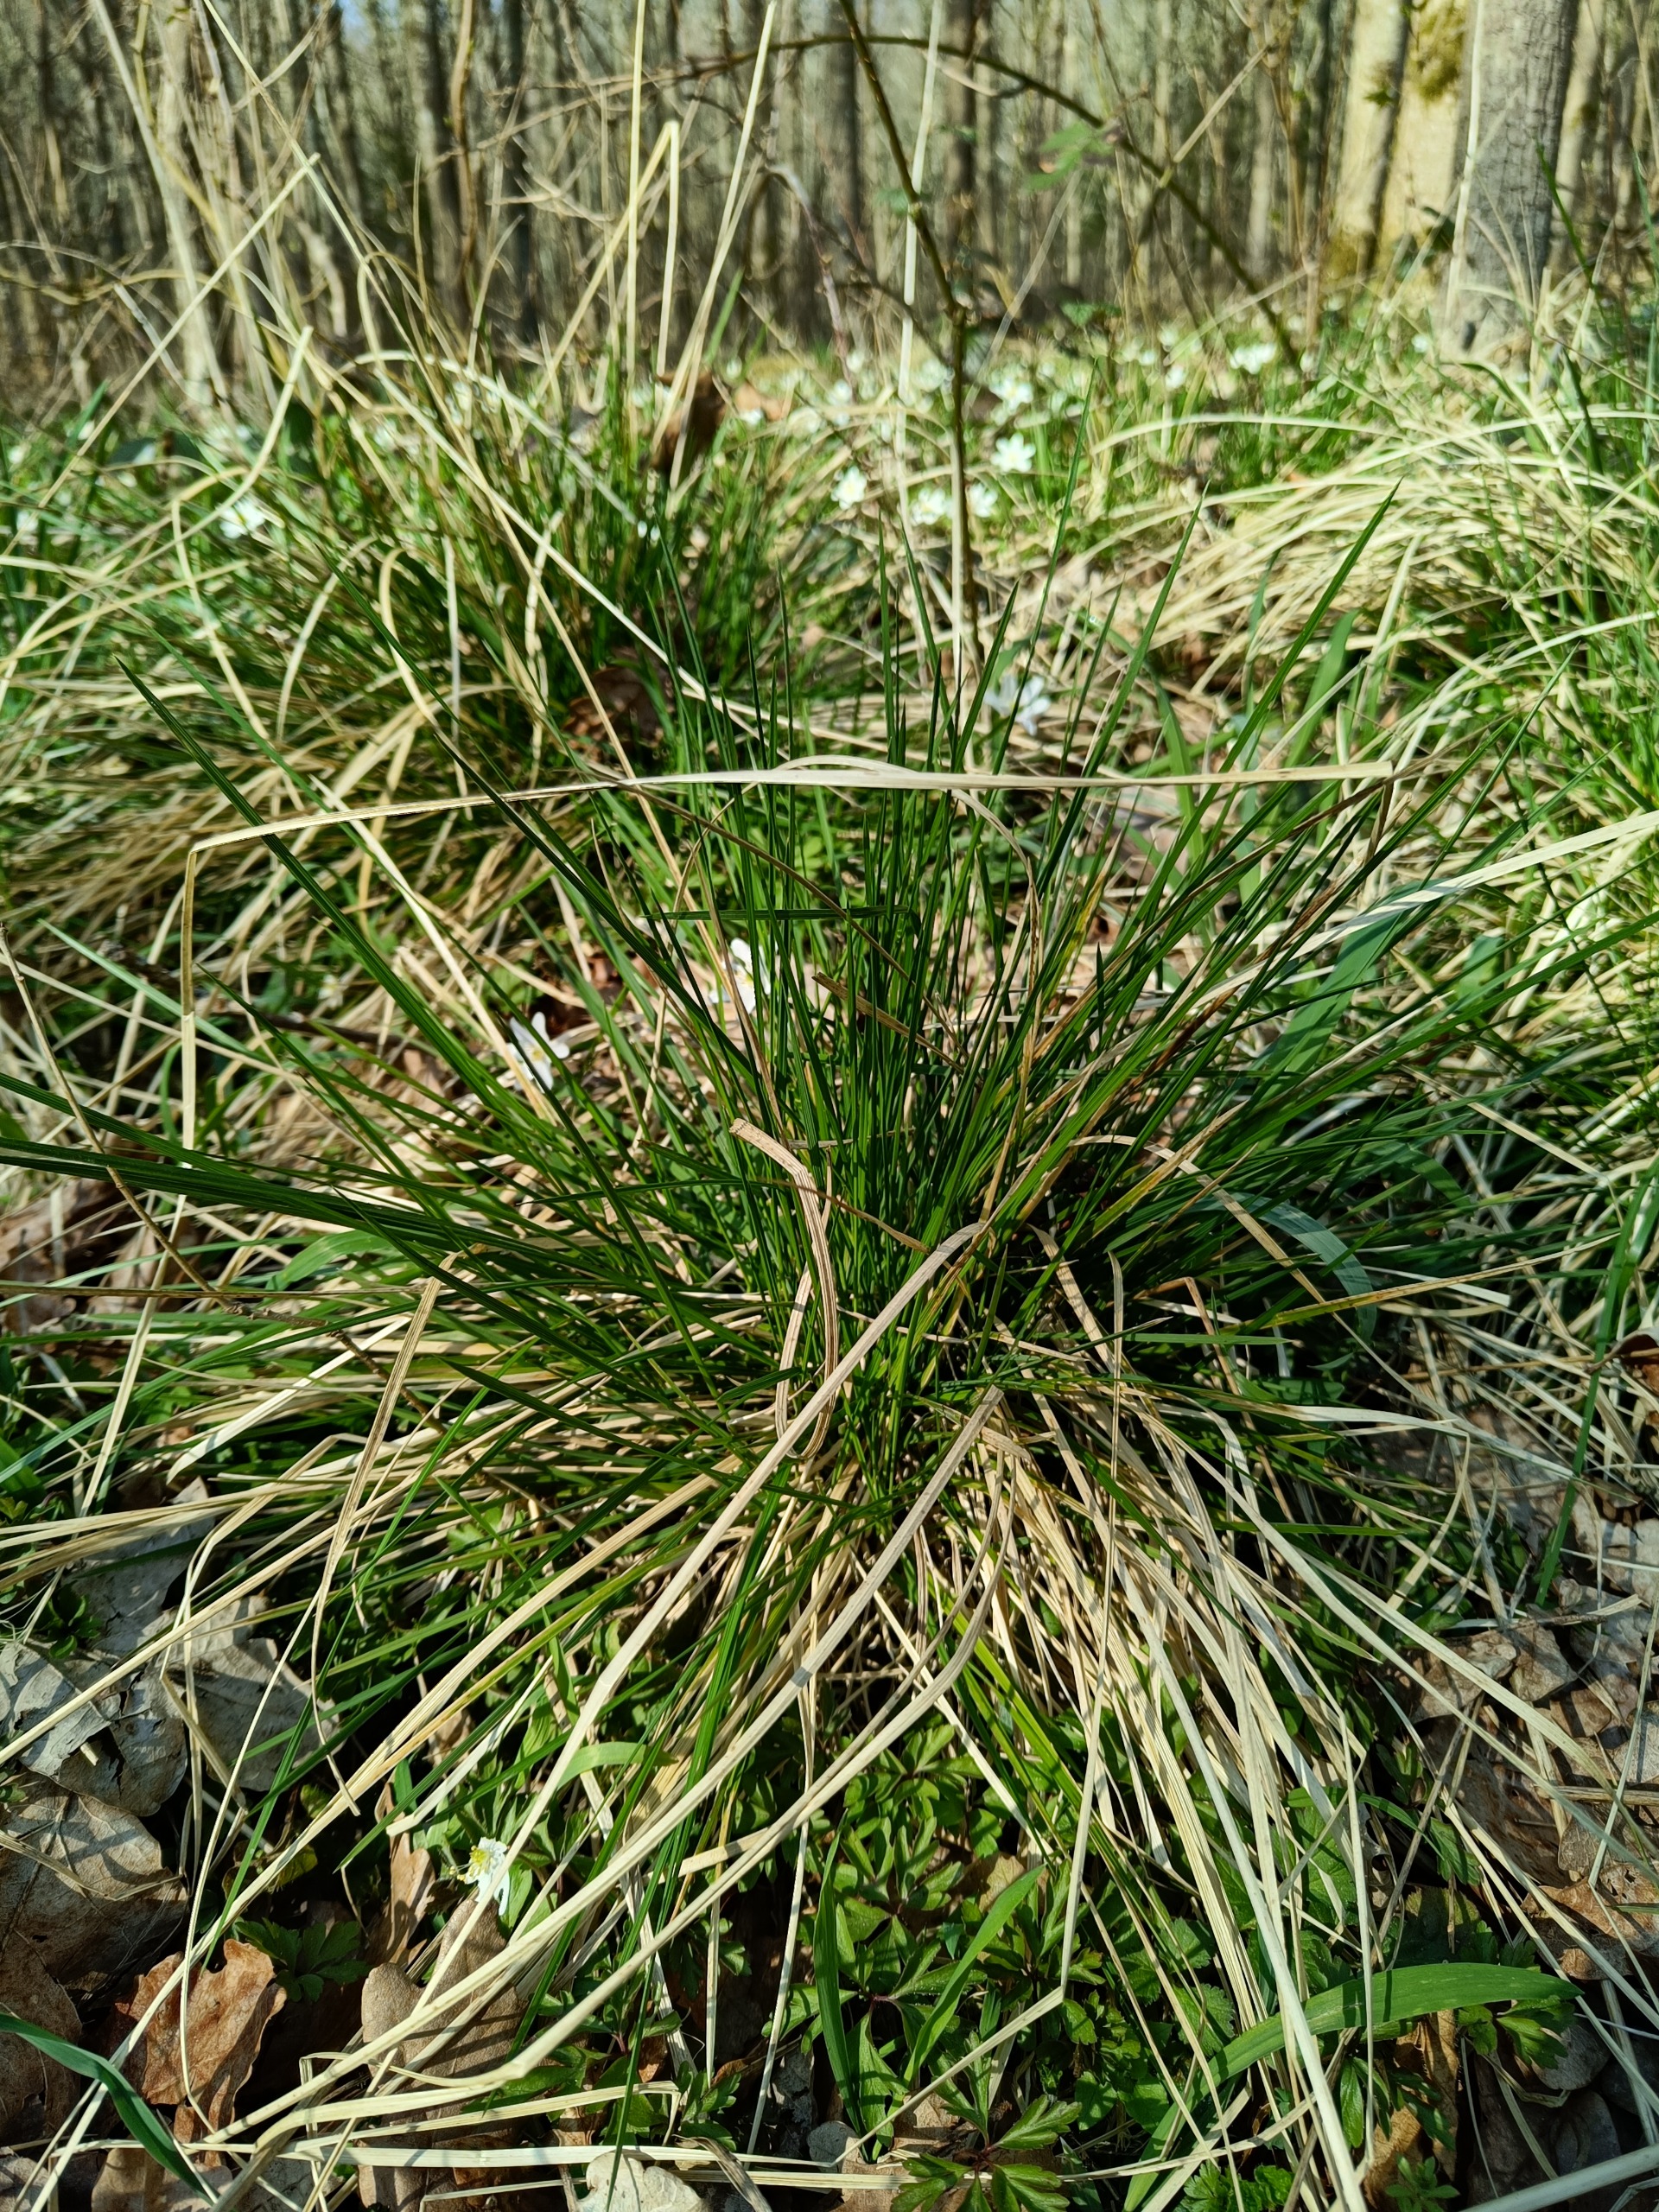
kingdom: Plantae
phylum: Tracheophyta
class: Liliopsida
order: Poales
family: Poaceae
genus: Deschampsia
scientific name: Deschampsia cespitosa
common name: Mose-bunke
